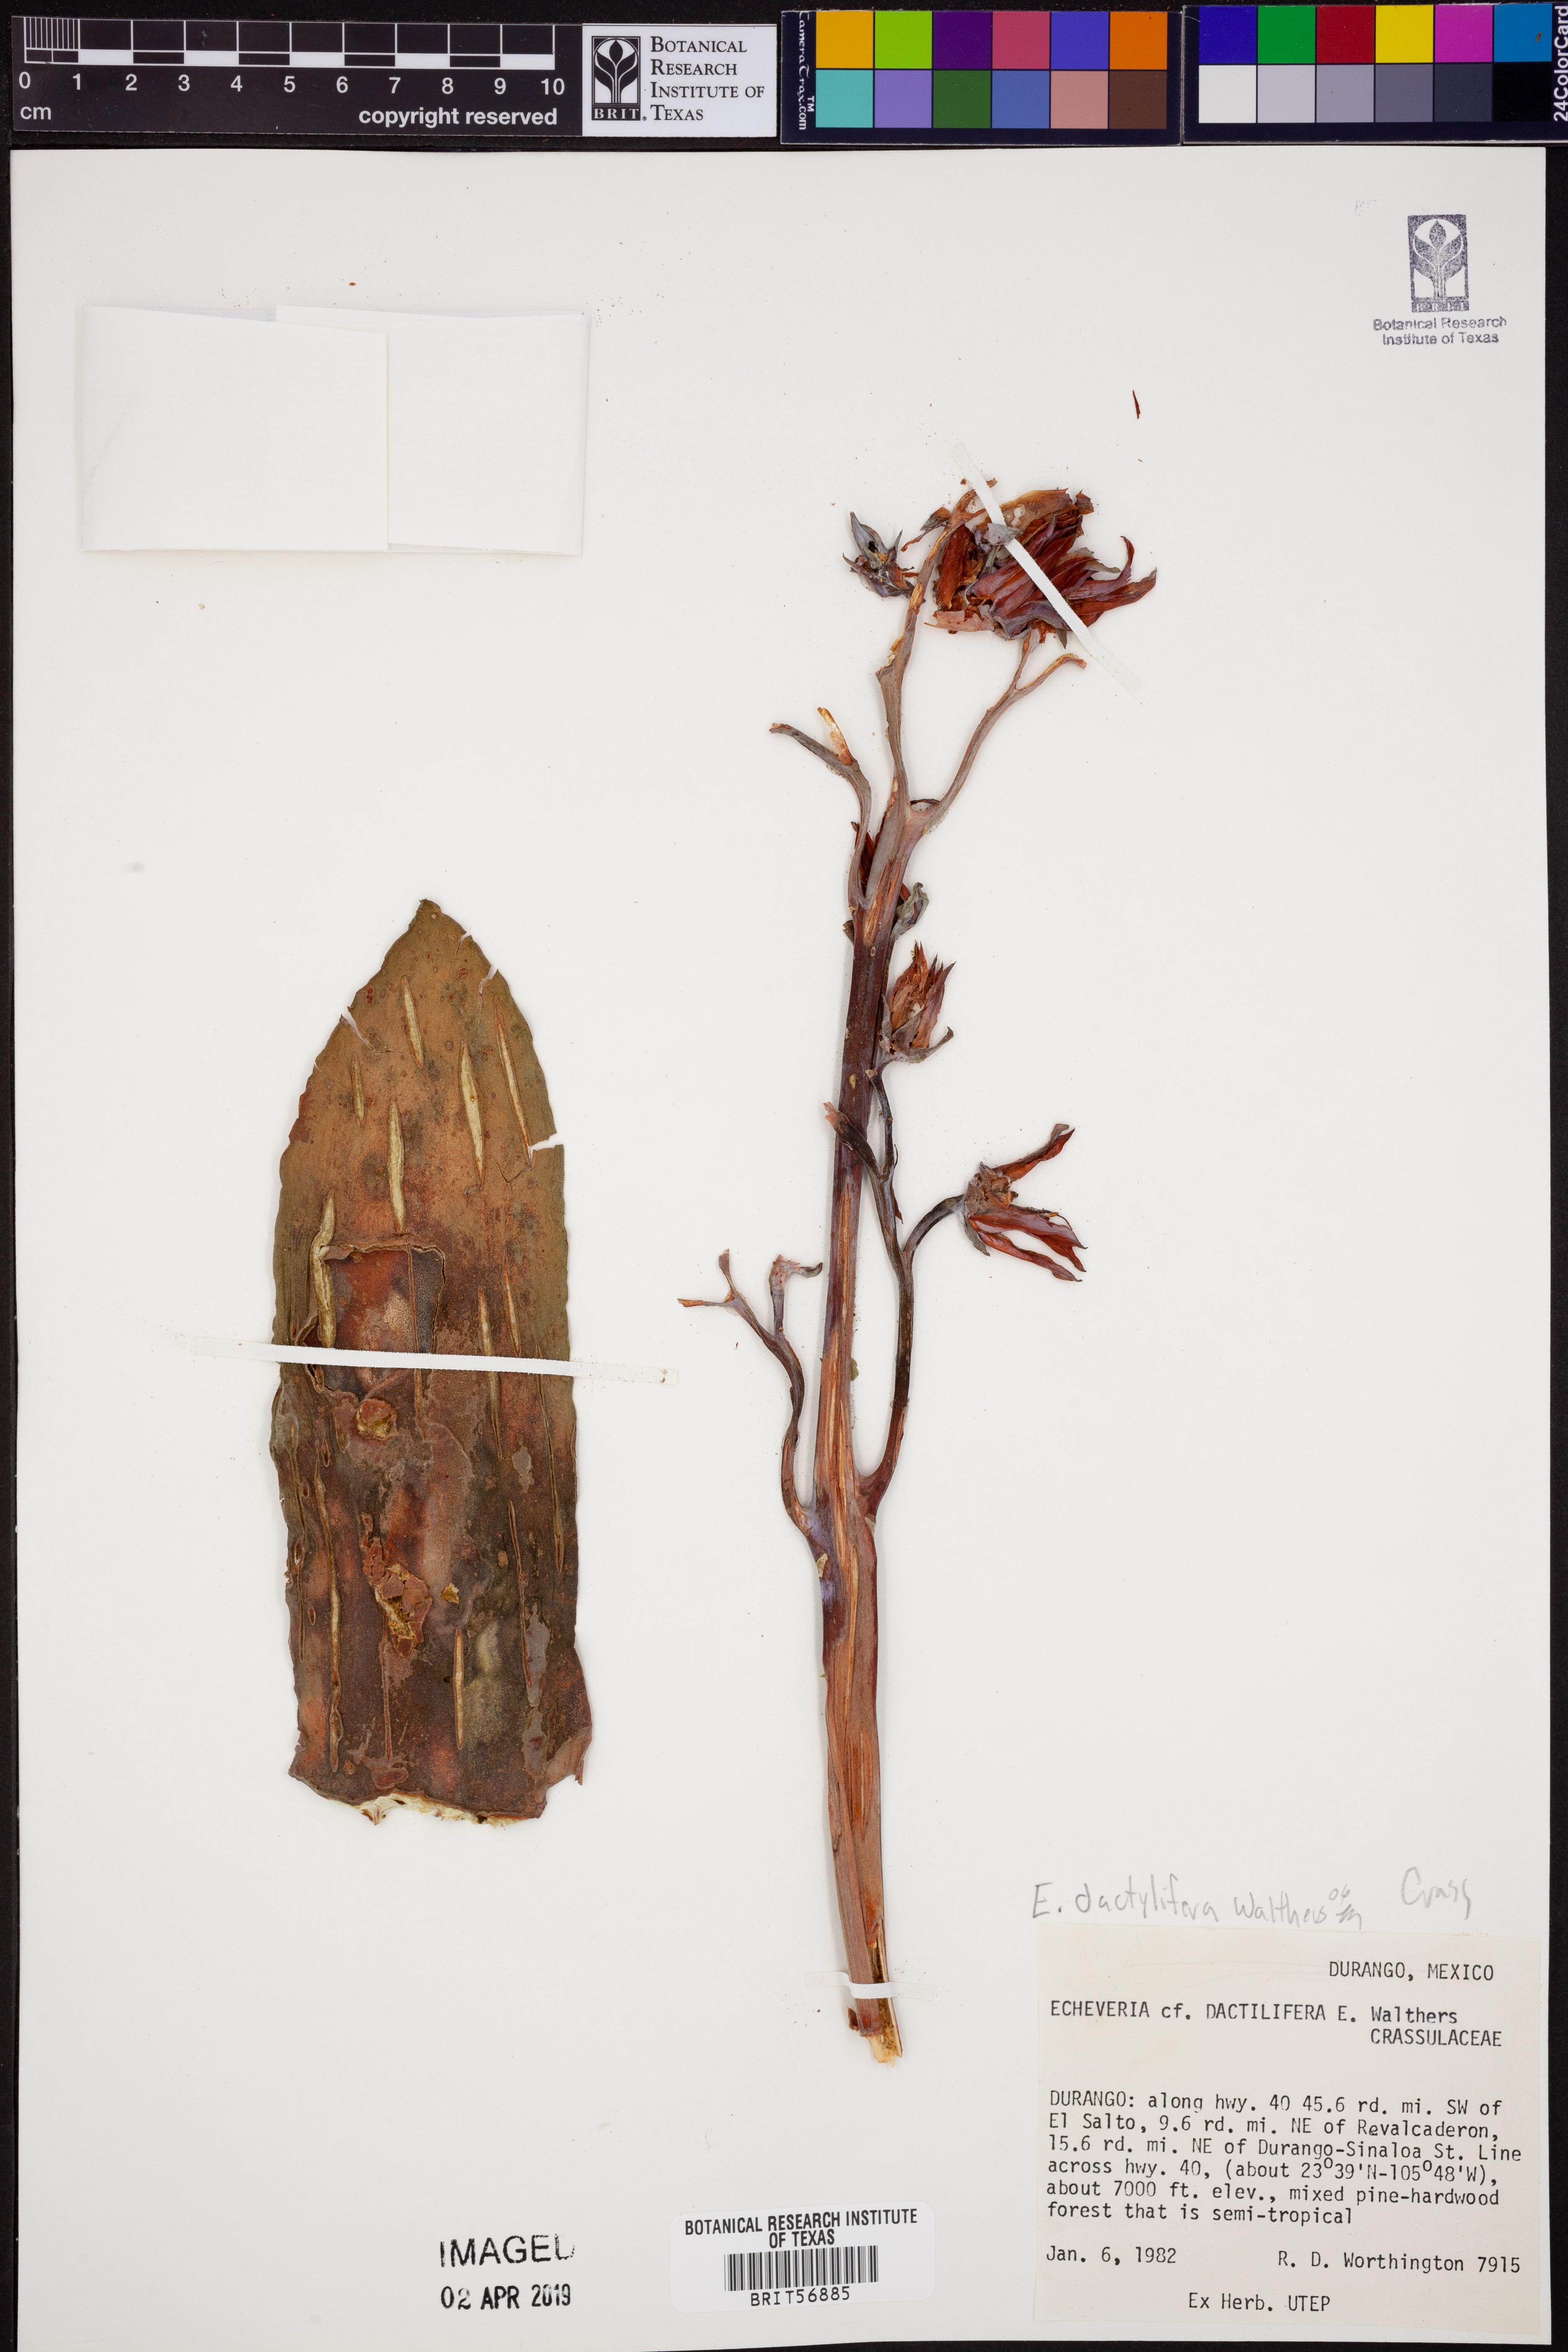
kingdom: Plantae
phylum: Tracheophyta
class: Magnoliopsida
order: Saxifragales
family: Crassulaceae
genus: Echeveria
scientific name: Echeveria dactylifera
